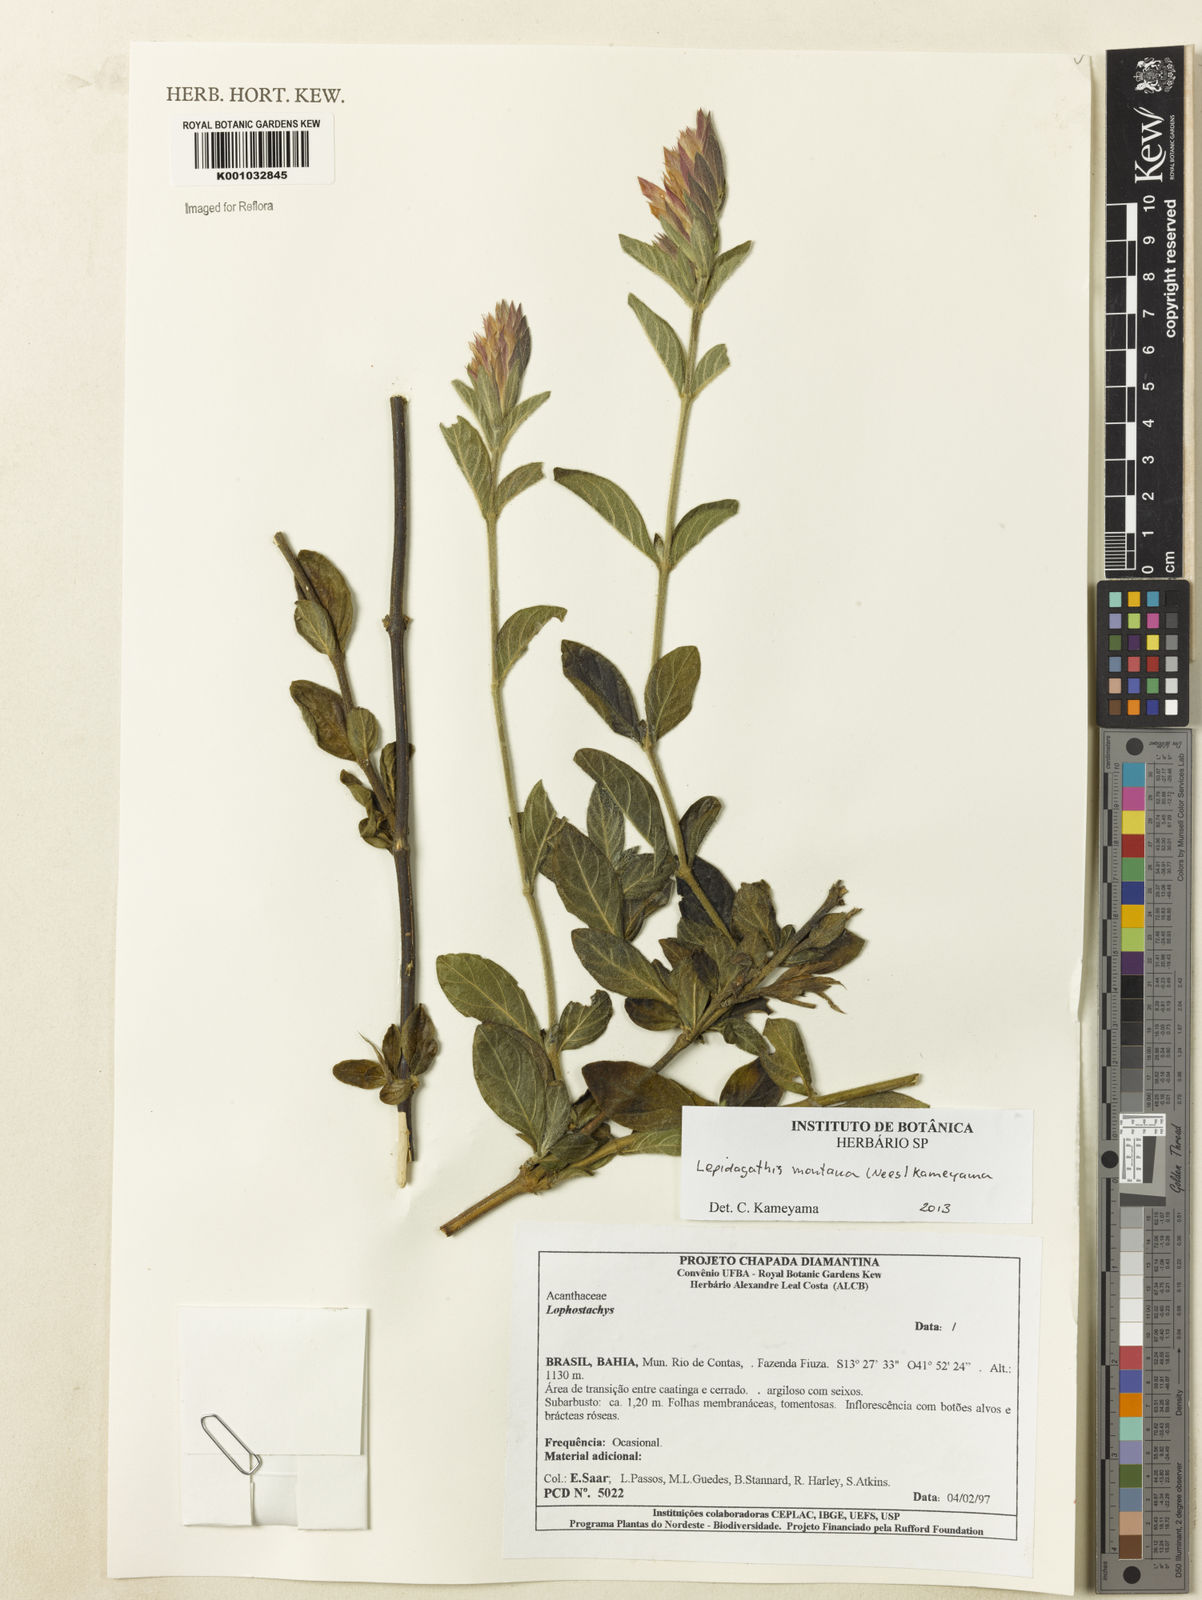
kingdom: Plantae
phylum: Tracheophyta
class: Magnoliopsida
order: Lamiales
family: Acanthaceae
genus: Lepidagathis
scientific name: Lepidagathis montana
